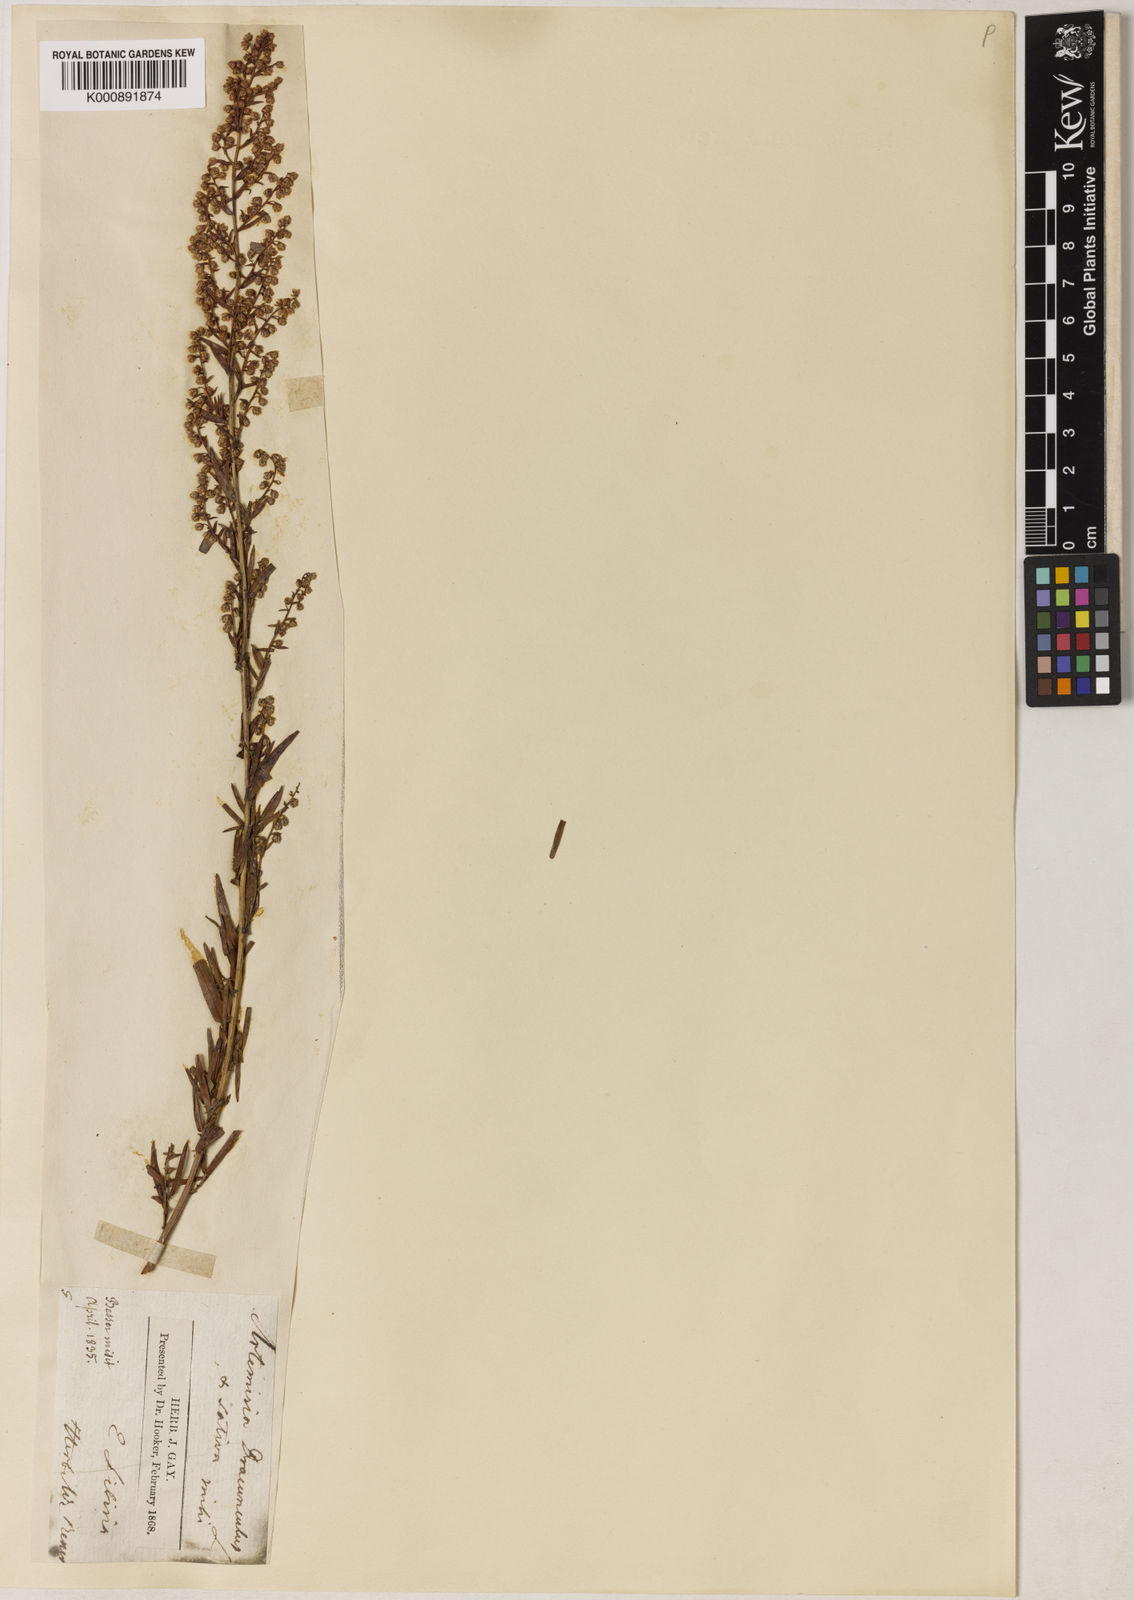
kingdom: Plantae
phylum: Tracheophyta
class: Magnoliopsida
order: Asterales
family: Asteraceae
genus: Artemisia
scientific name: Artemisia dracunculus
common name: Tarragon
